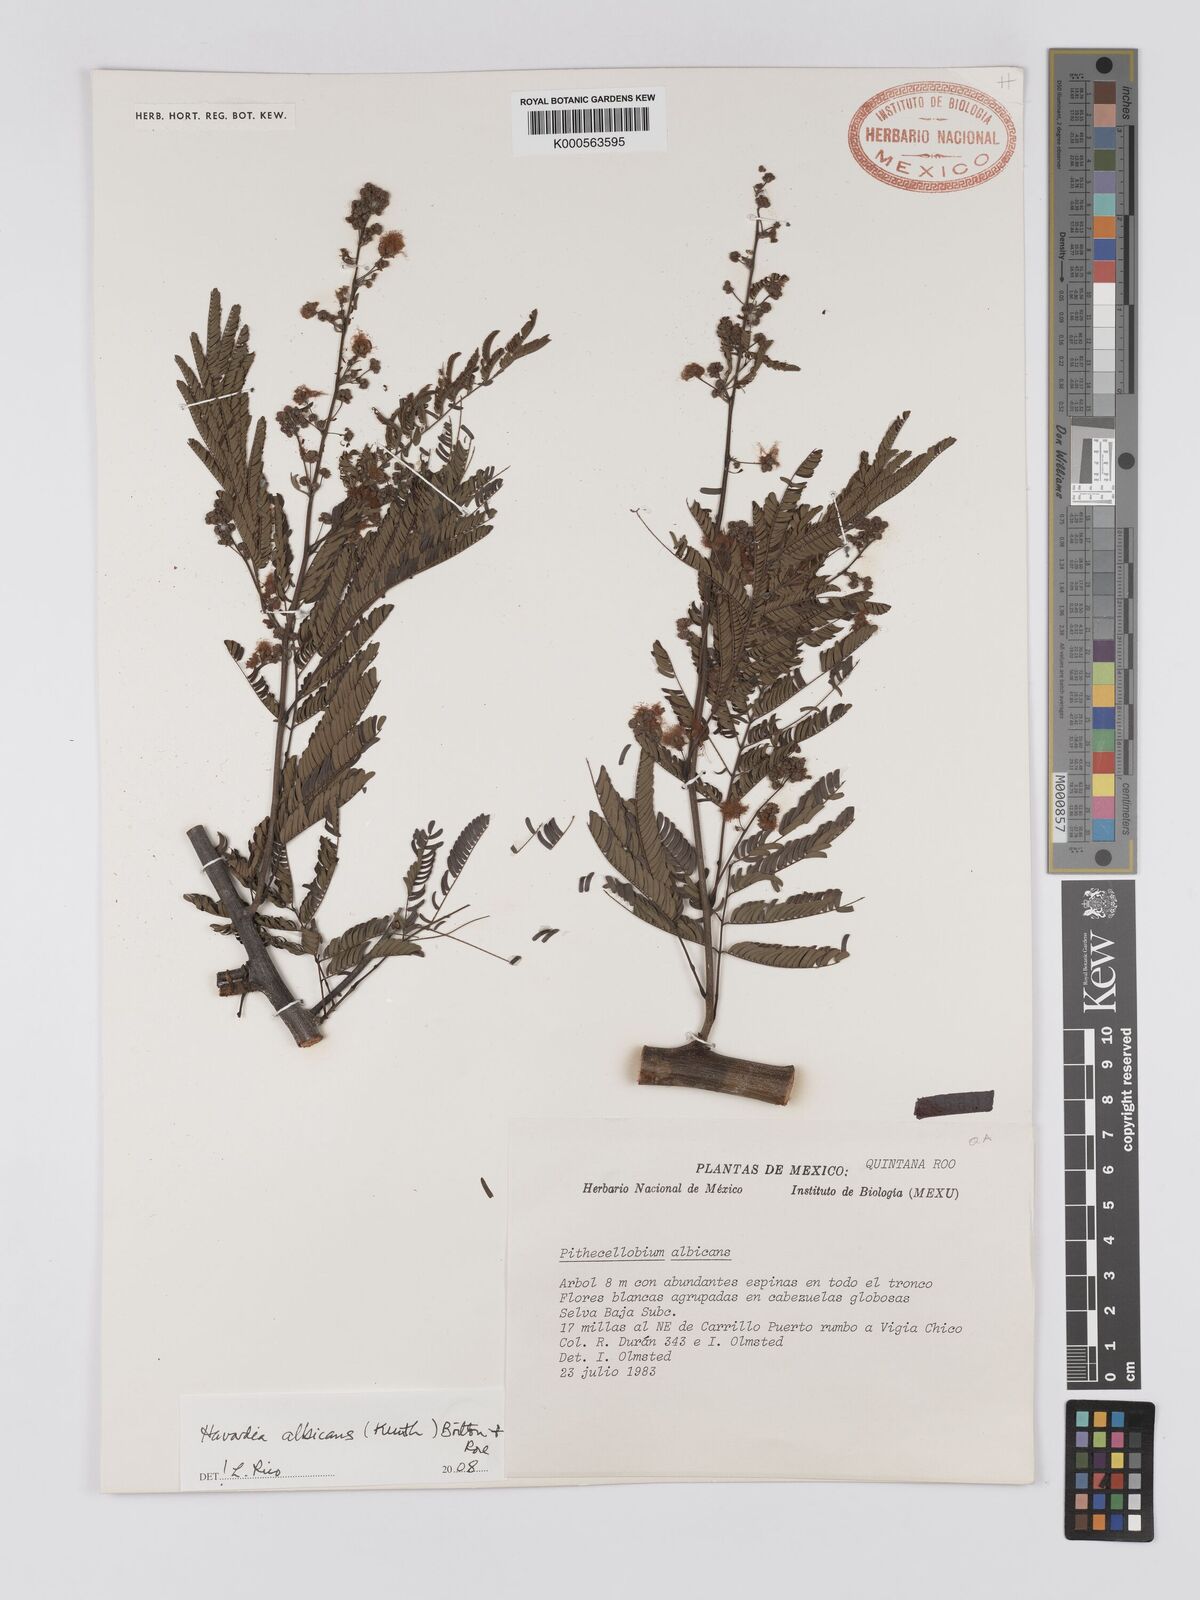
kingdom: Plantae
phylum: Tracheophyta
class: Magnoliopsida
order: Fabales
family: Fabaceae
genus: Havardia
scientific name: Havardia albicans
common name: Huisache
